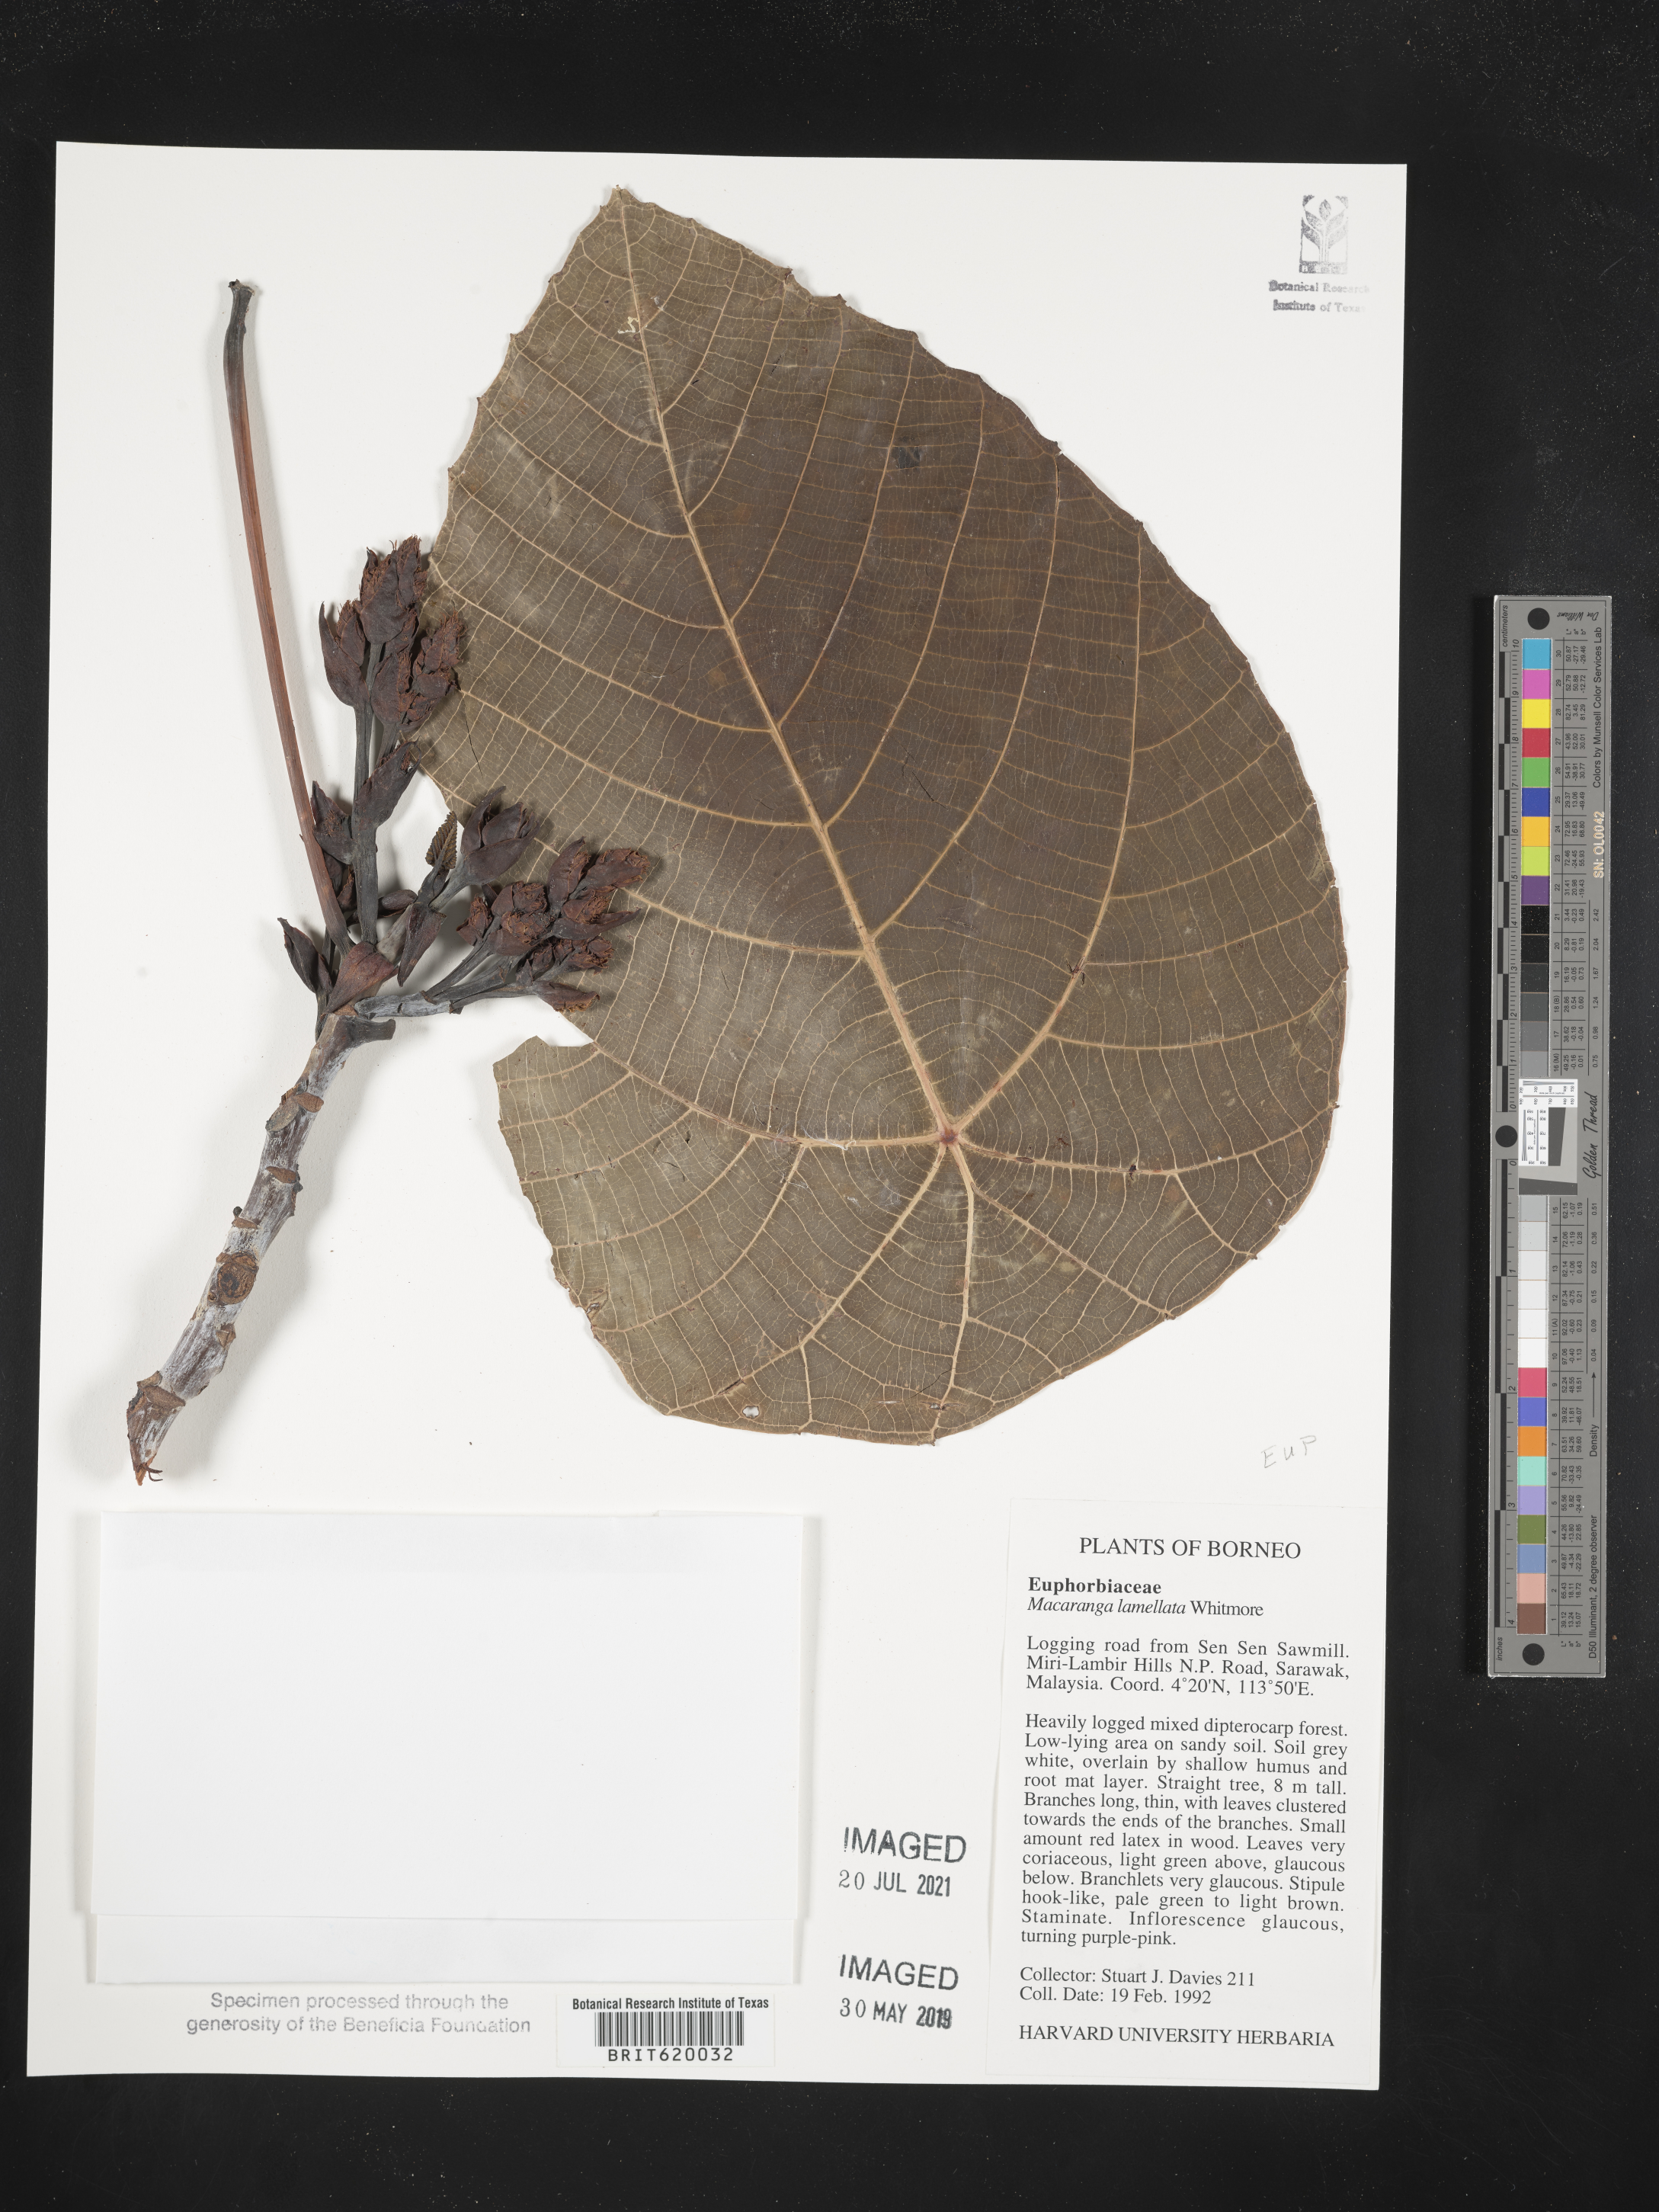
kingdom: Plantae
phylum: Tracheophyta
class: Magnoliopsida
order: Malpighiales
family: Euphorbiaceae
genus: Macaranga
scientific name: Macaranga lamellata
